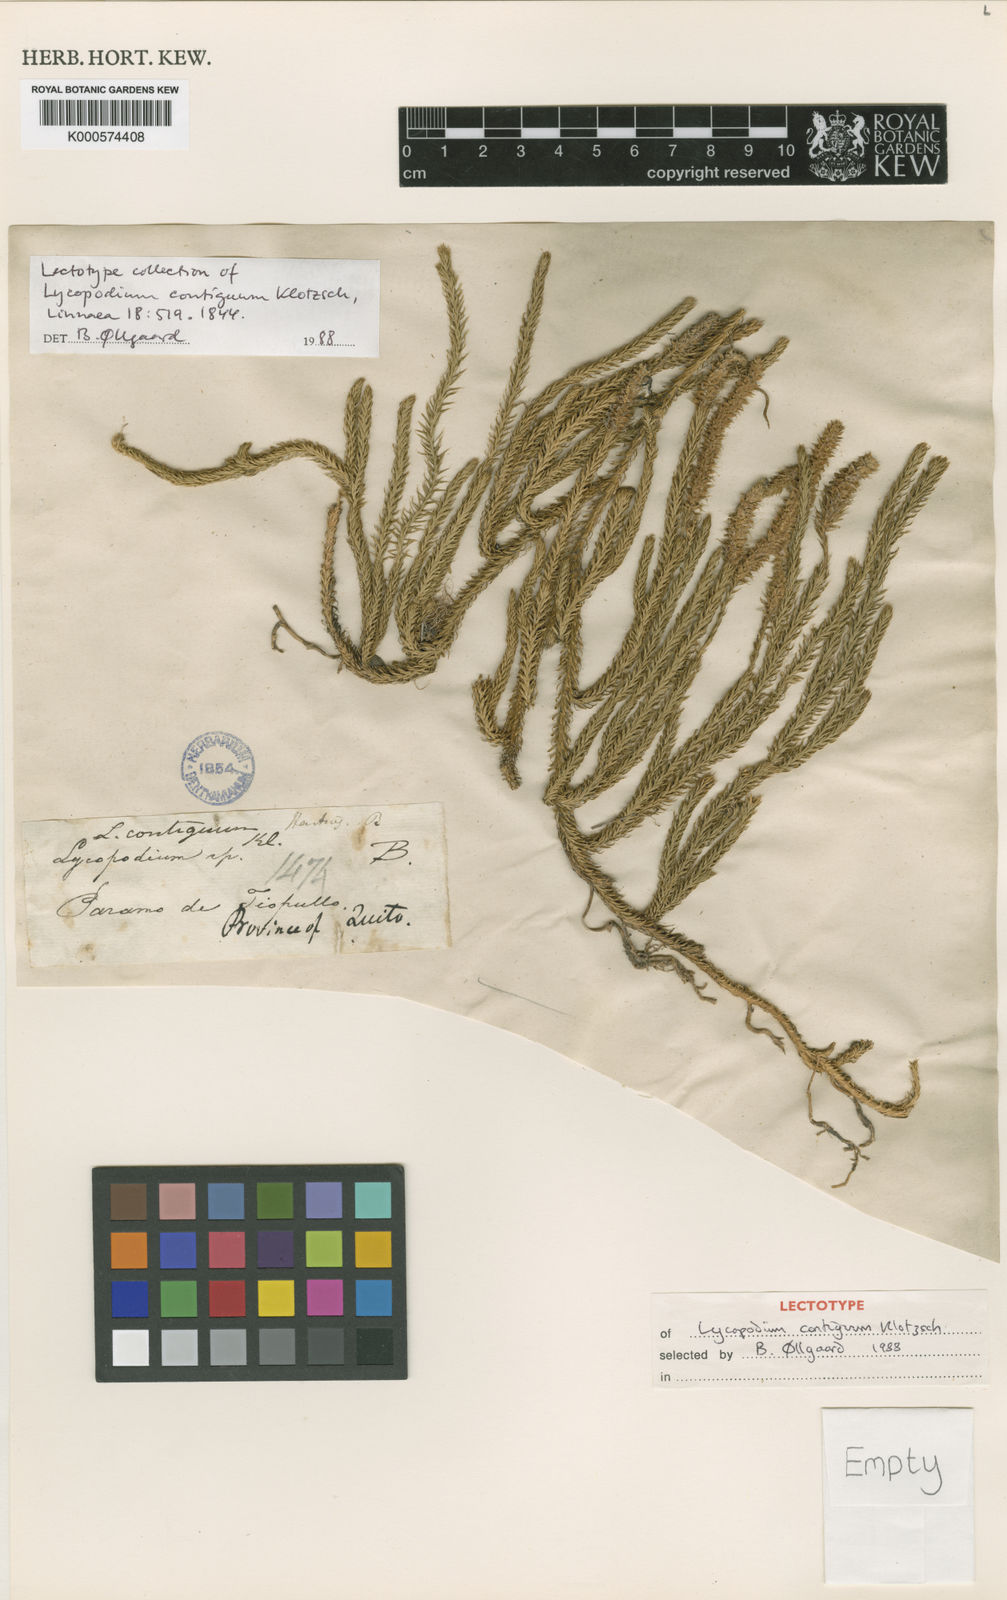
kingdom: Plantae
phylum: Tracheophyta
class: Lycopodiopsida
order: Lycopodiales
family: Lycopodiaceae
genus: Lycopodium
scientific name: Lycopodium clavatum
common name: Stag's-horn clubmoss
